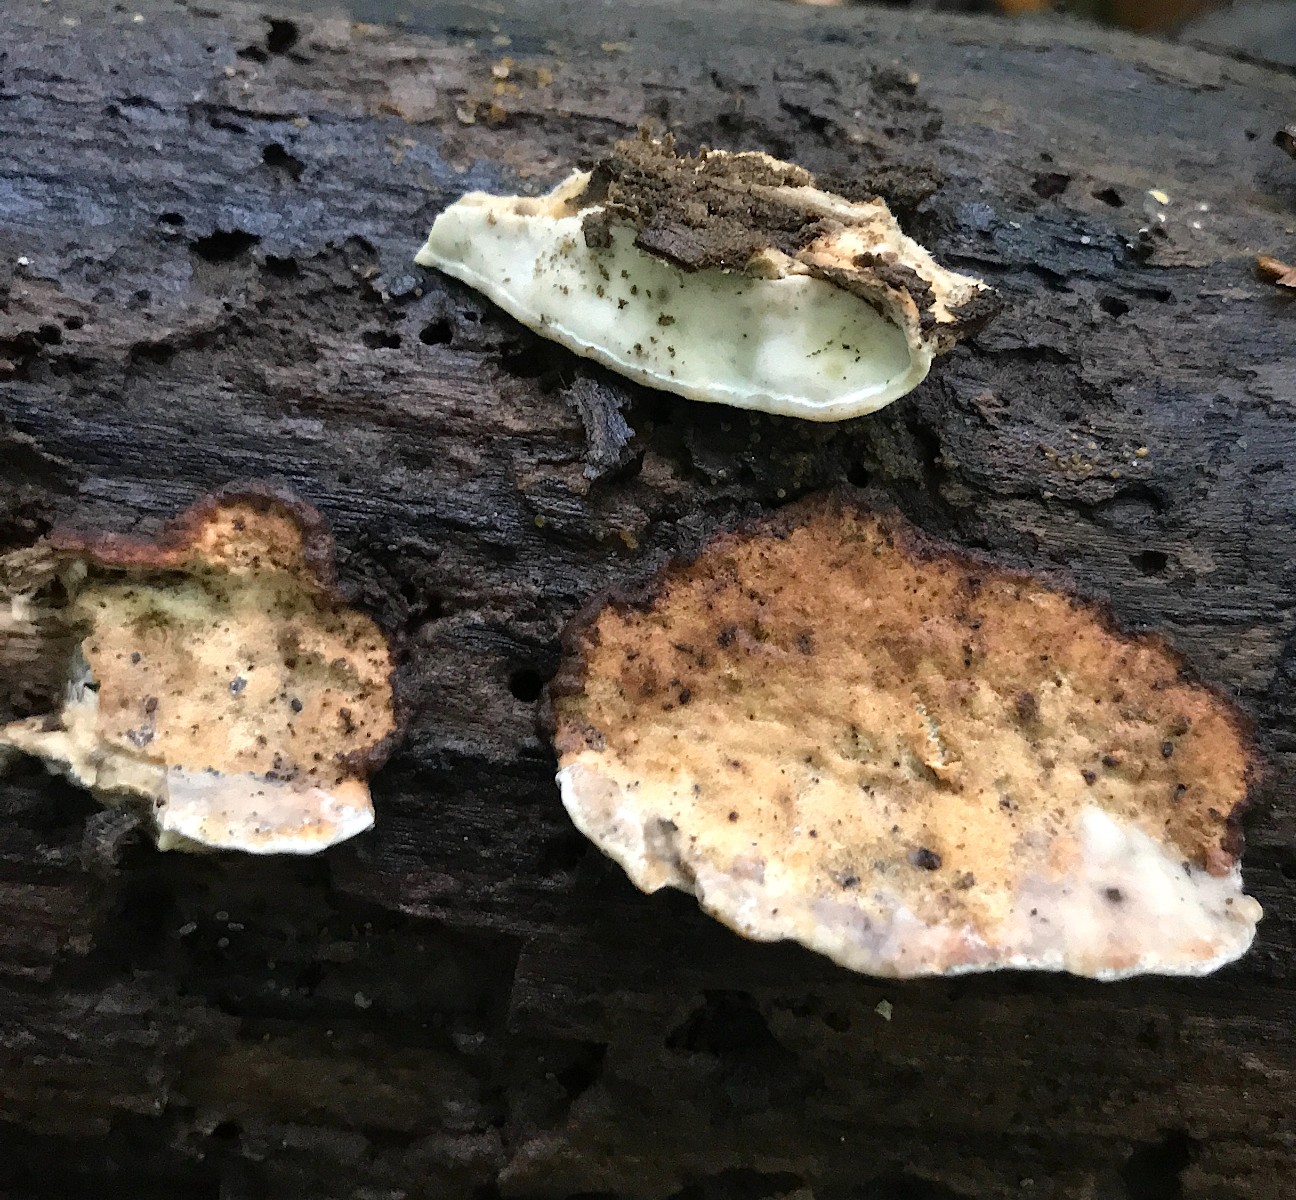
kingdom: Fungi
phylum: Basidiomycota
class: Agaricomycetes
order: Polyporales
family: Incrustoporiaceae
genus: Skeletocutis
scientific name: Skeletocutis nemoralis
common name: stor krystalporesvamp
